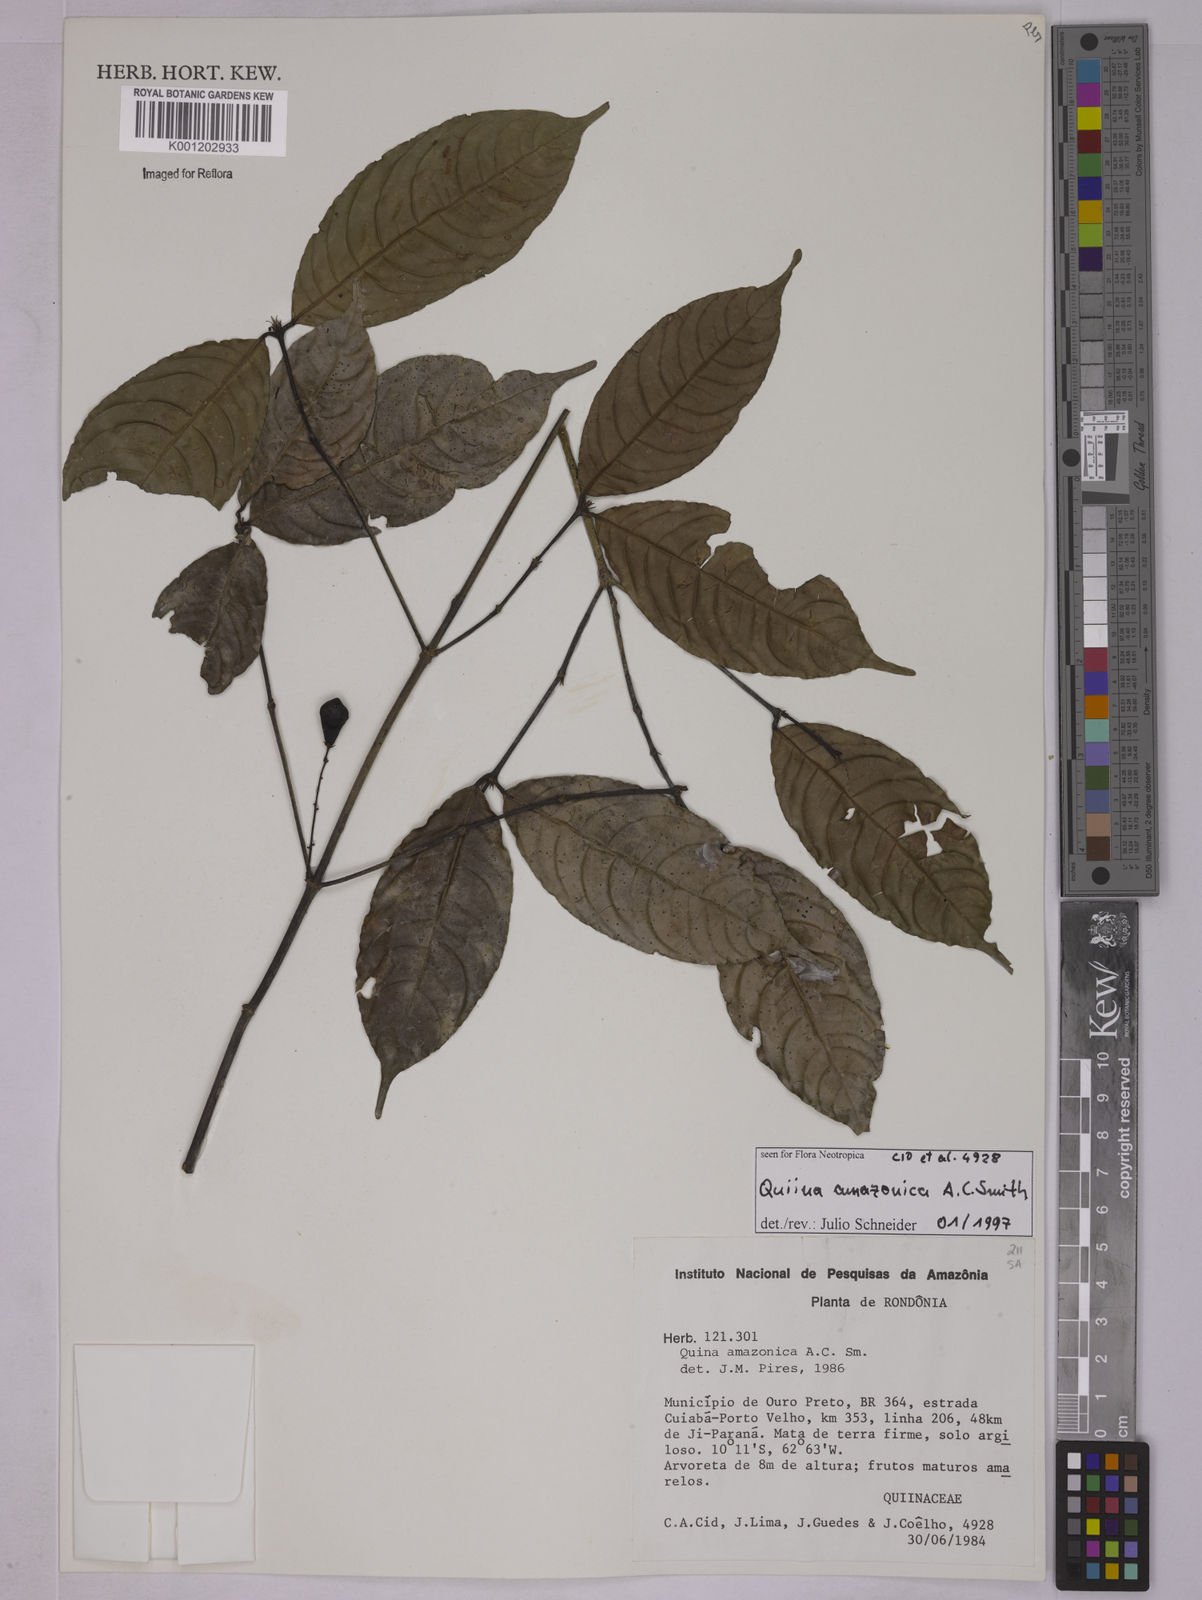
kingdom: Plantae
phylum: Tracheophyta
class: Magnoliopsida
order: Malpighiales
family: Quiinaceae
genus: Quiina
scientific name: Quiina amazonica
